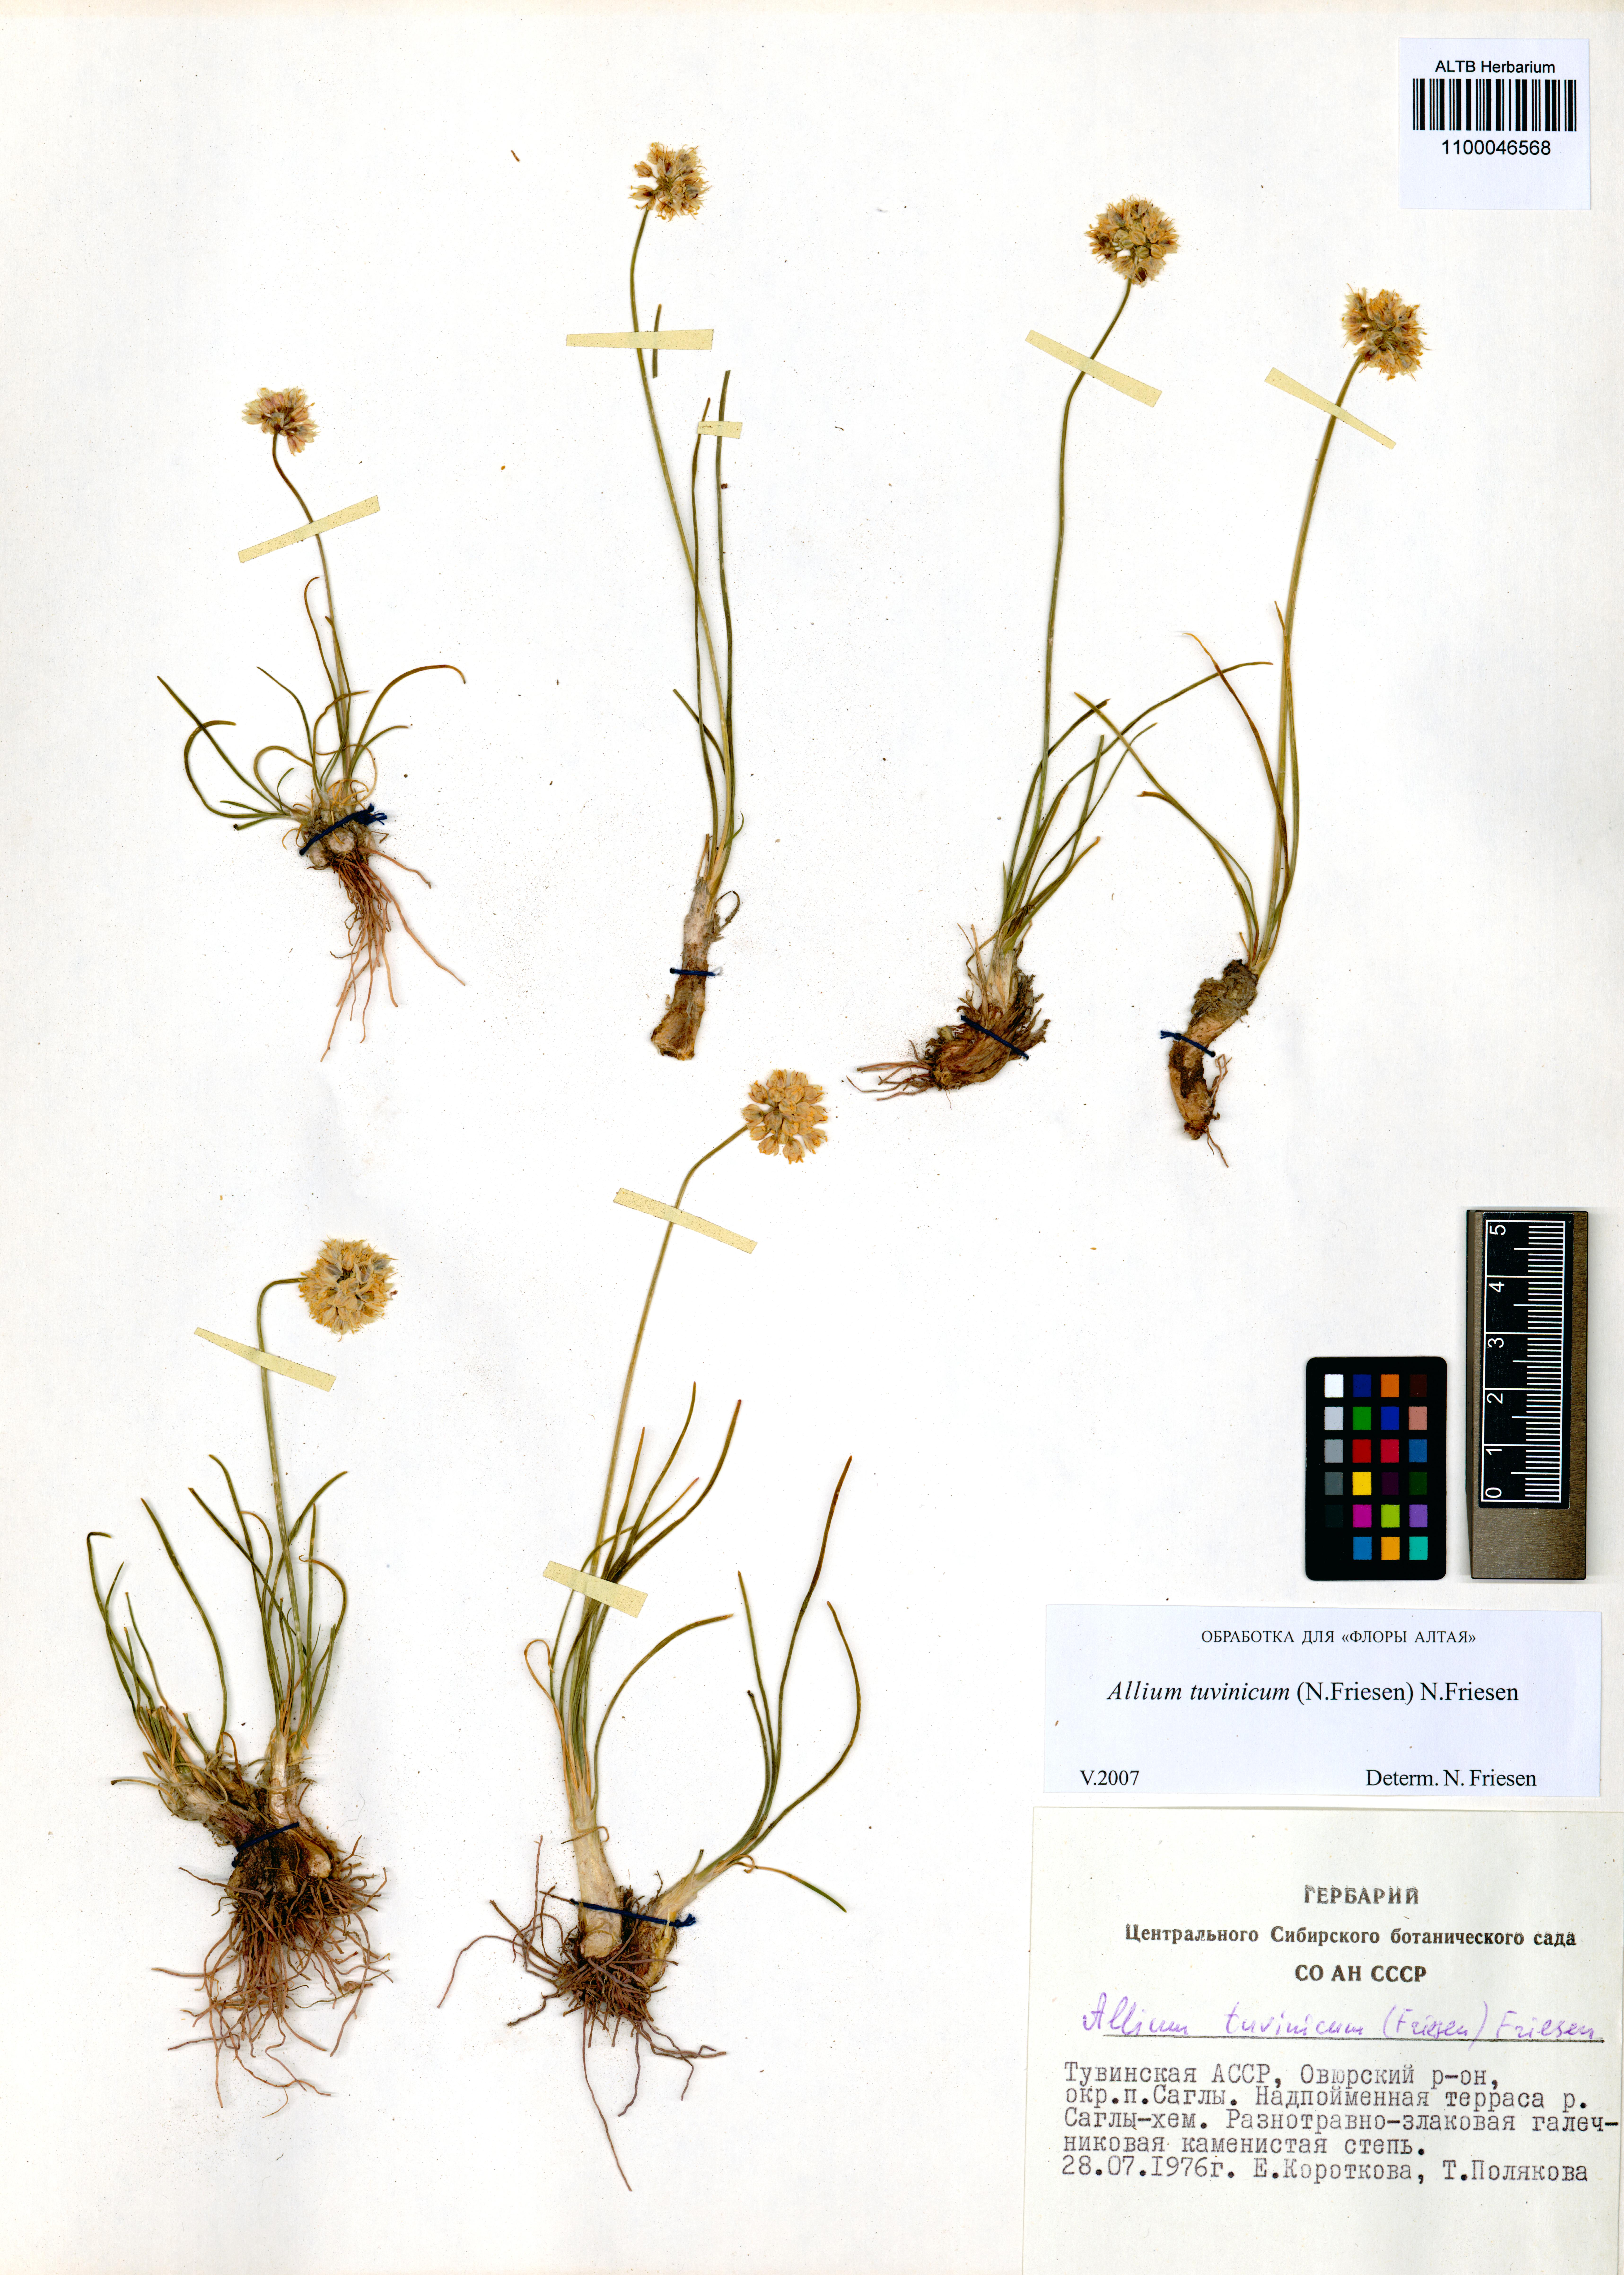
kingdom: Plantae
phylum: Tracheophyta
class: Liliopsida
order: Asparagales
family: Amaryllidaceae
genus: Allium
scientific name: Allium tuvinicum
